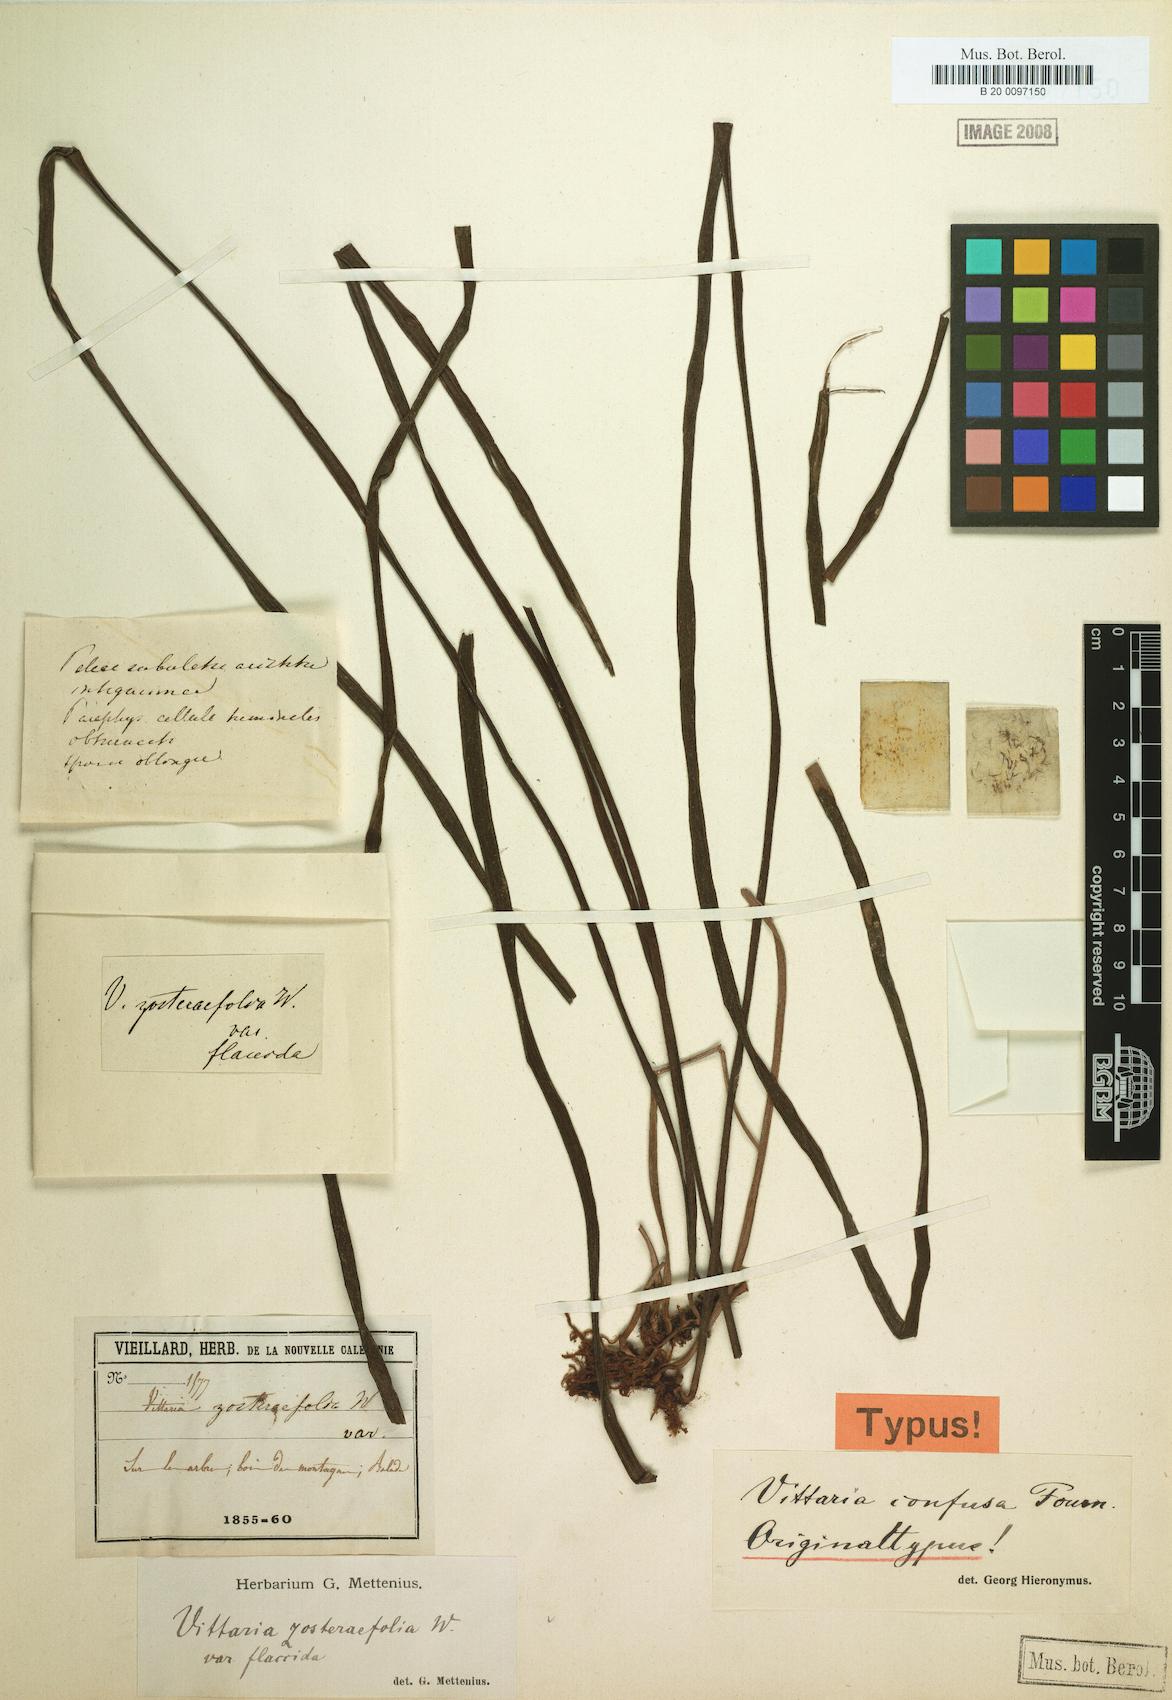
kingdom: Plantae
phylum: Tracheophyta
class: Polypodiopsida
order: Polypodiales
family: Pteridaceae
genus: Haplopteris
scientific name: Haplopteris zosterifolia
